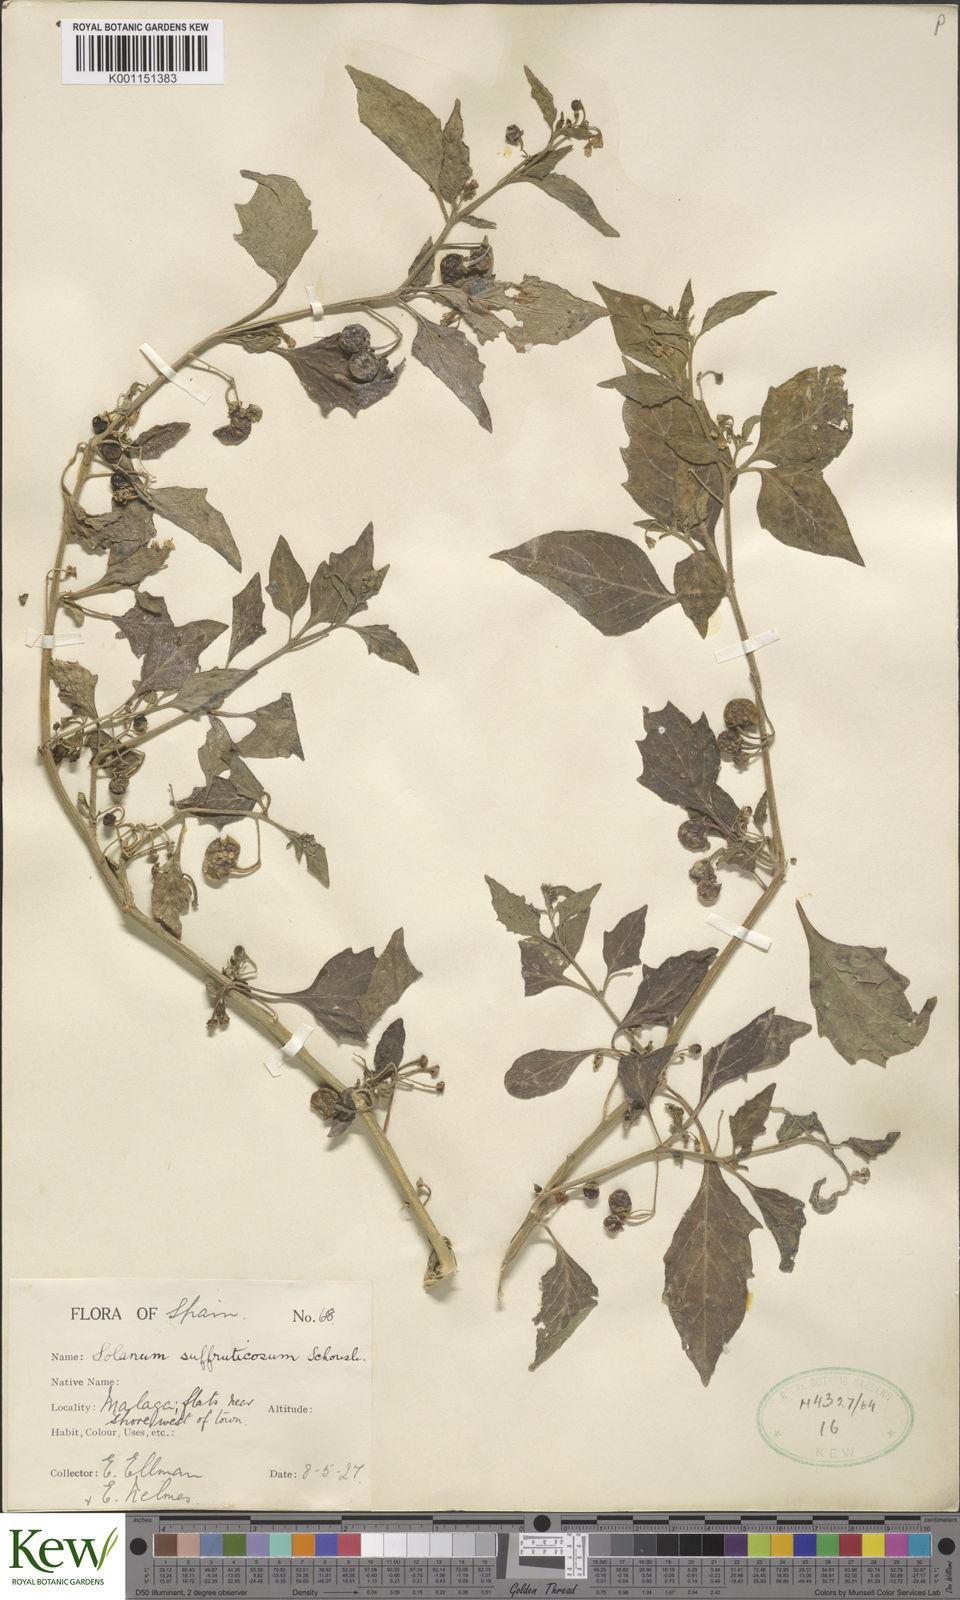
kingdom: Plantae
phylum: Tracheophyta
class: Magnoliopsida
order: Solanales
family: Solanaceae
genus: Solanum
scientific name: Solanum nigrum
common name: Black nightshade
